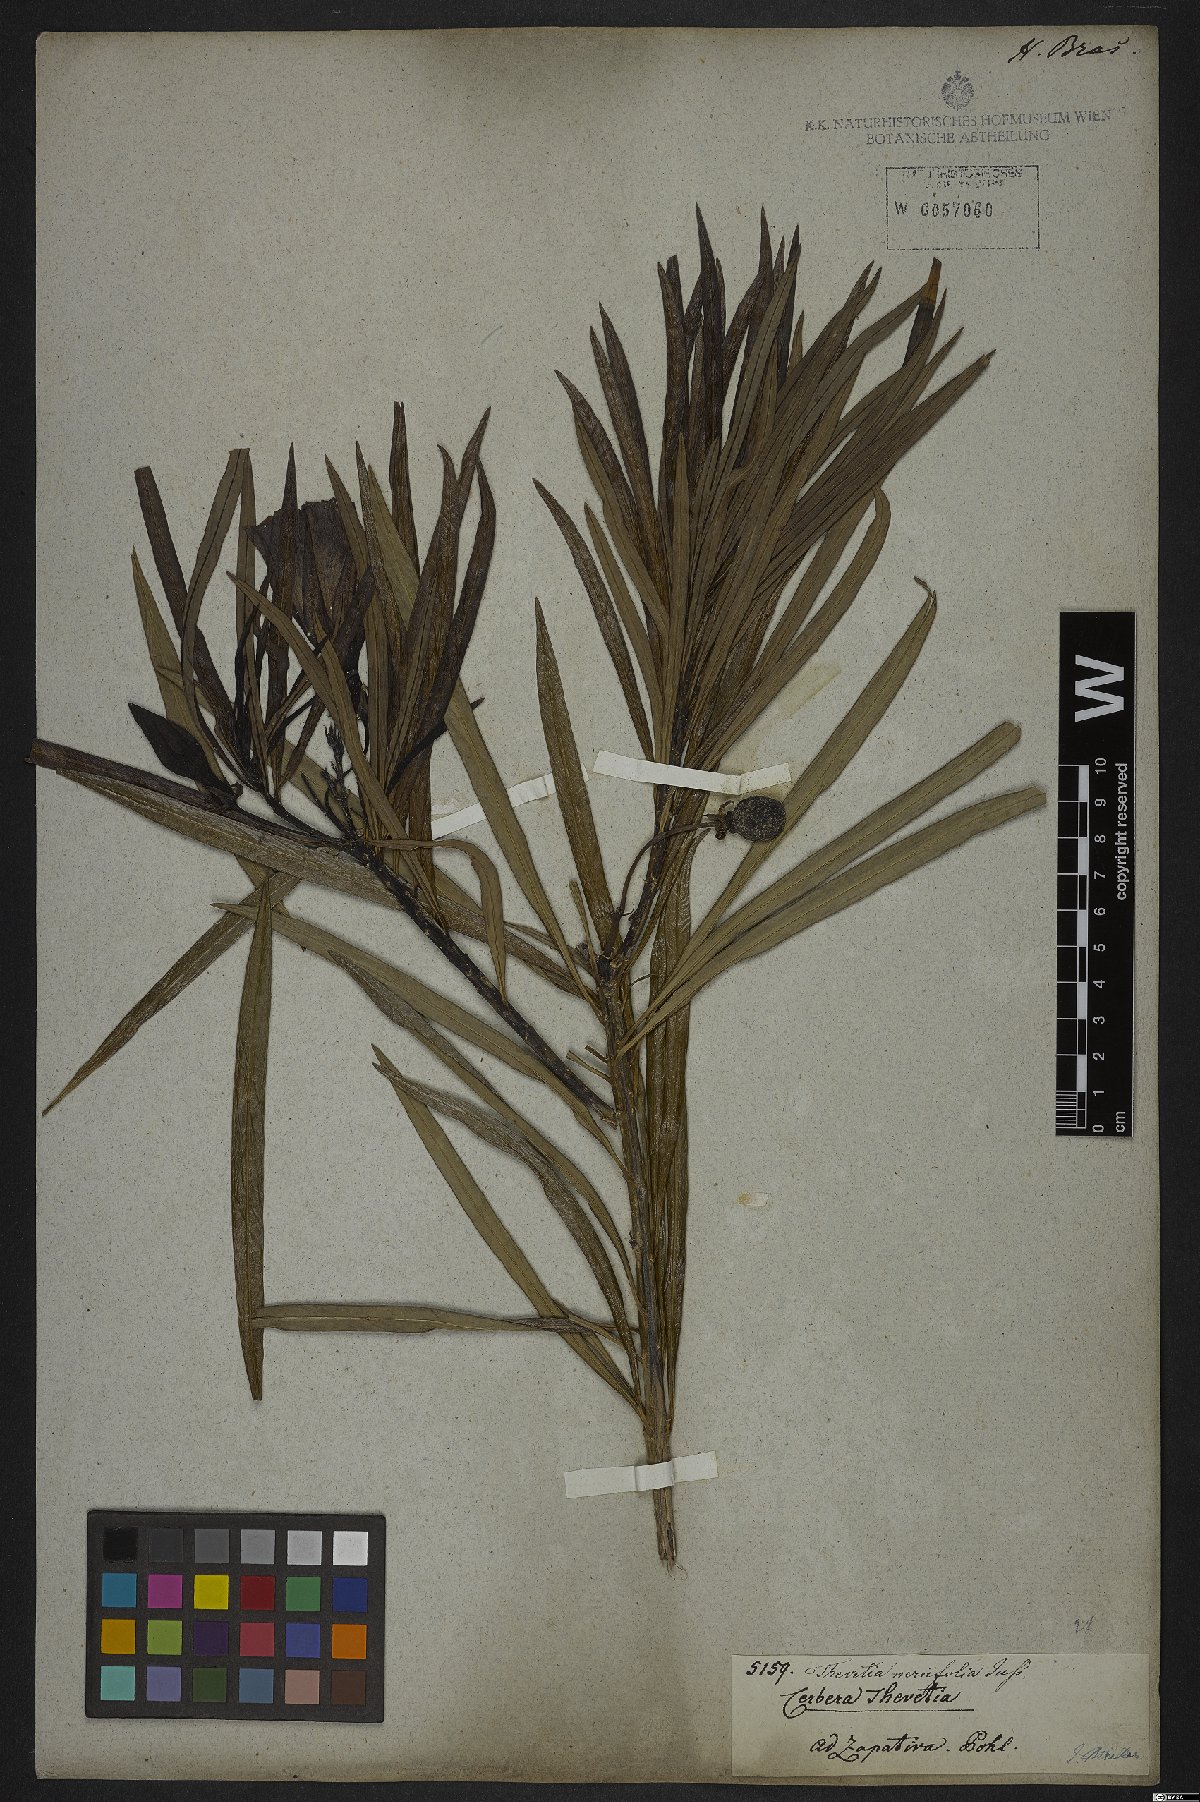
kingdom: Plantae
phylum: Tracheophyta
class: Magnoliopsida
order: Gentianales
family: Apocynaceae
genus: Cascabela
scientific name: Cascabela thevetia
